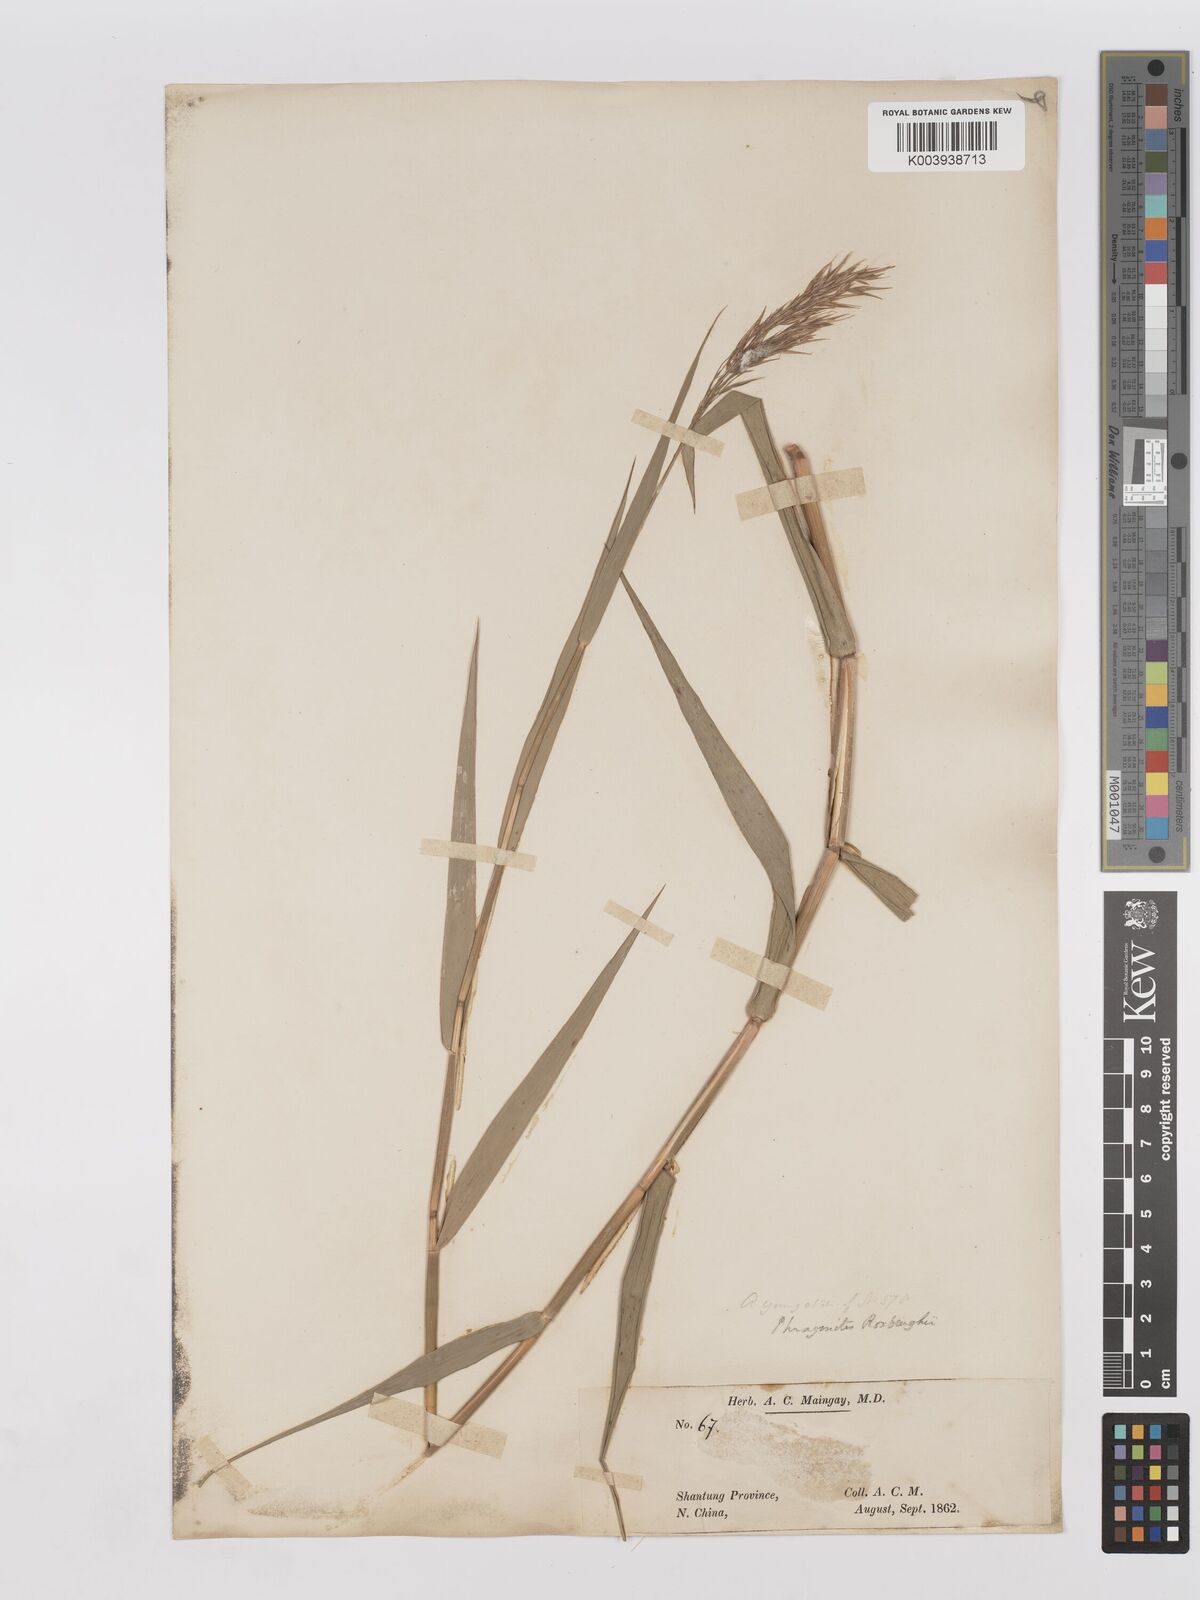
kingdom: Plantae
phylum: Tracheophyta
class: Liliopsida
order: Poales
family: Poaceae
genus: Phragmites
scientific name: Phragmites australis
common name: Common reed
